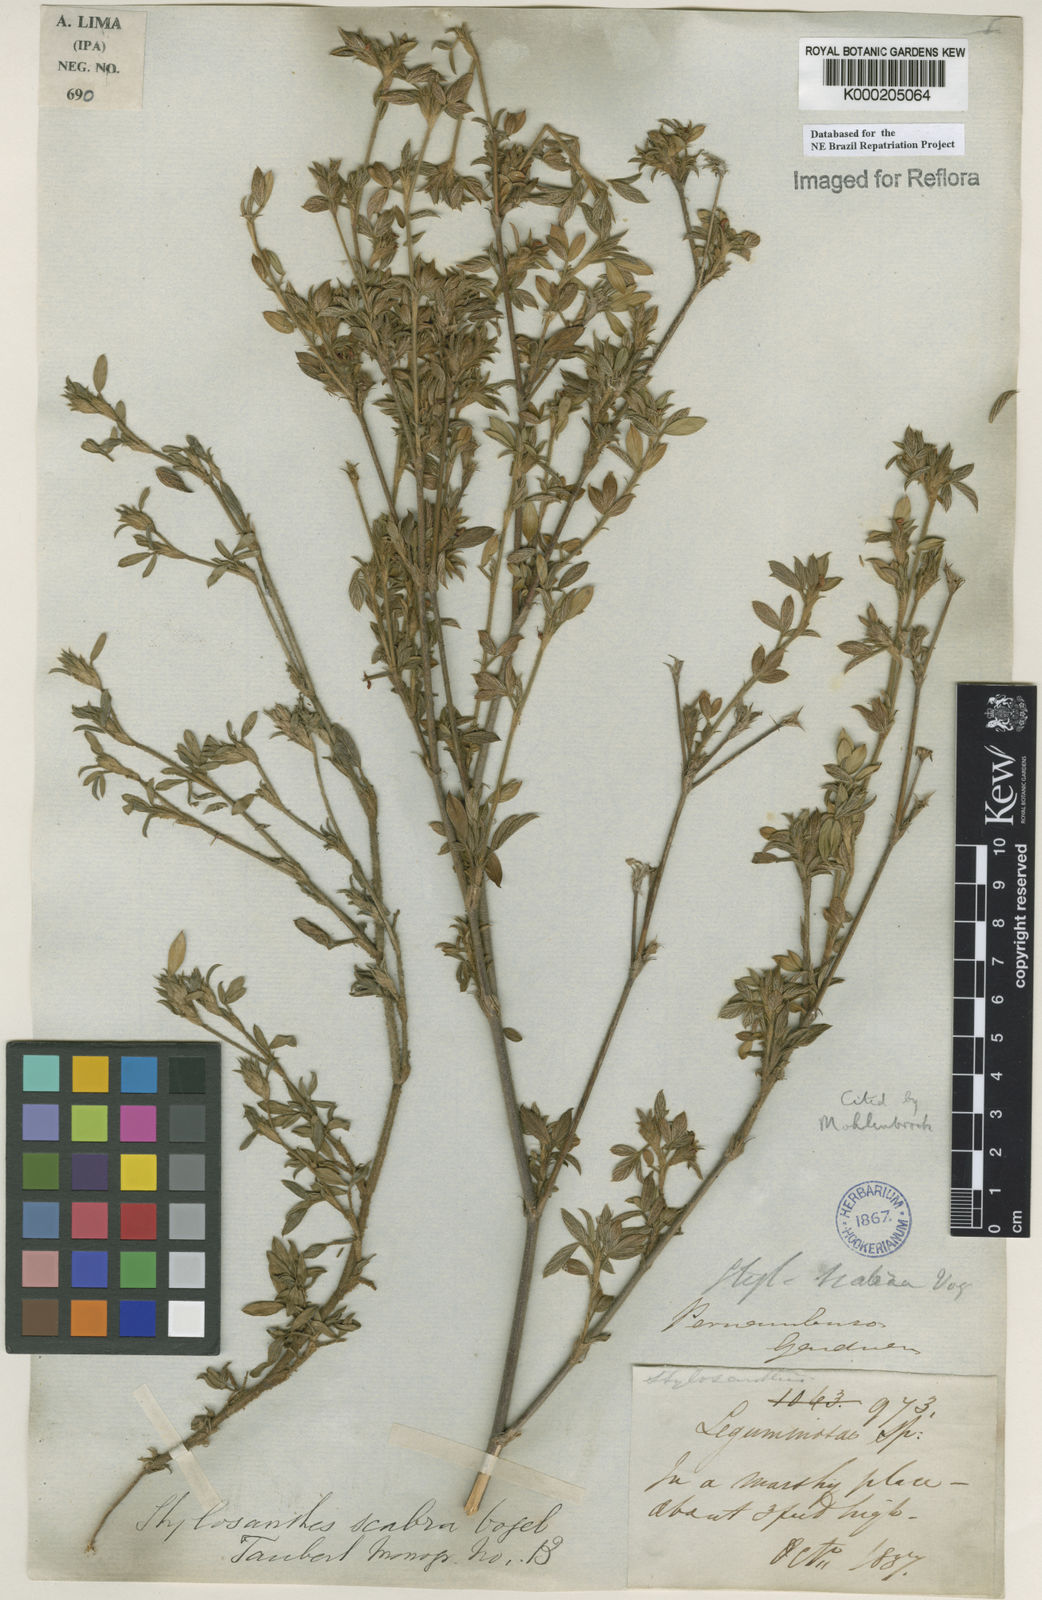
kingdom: Plantae
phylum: Tracheophyta
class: Magnoliopsida
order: Fabales
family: Fabaceae
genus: Stylosanthes
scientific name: Stylosanthes scabra
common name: Pencilflower
